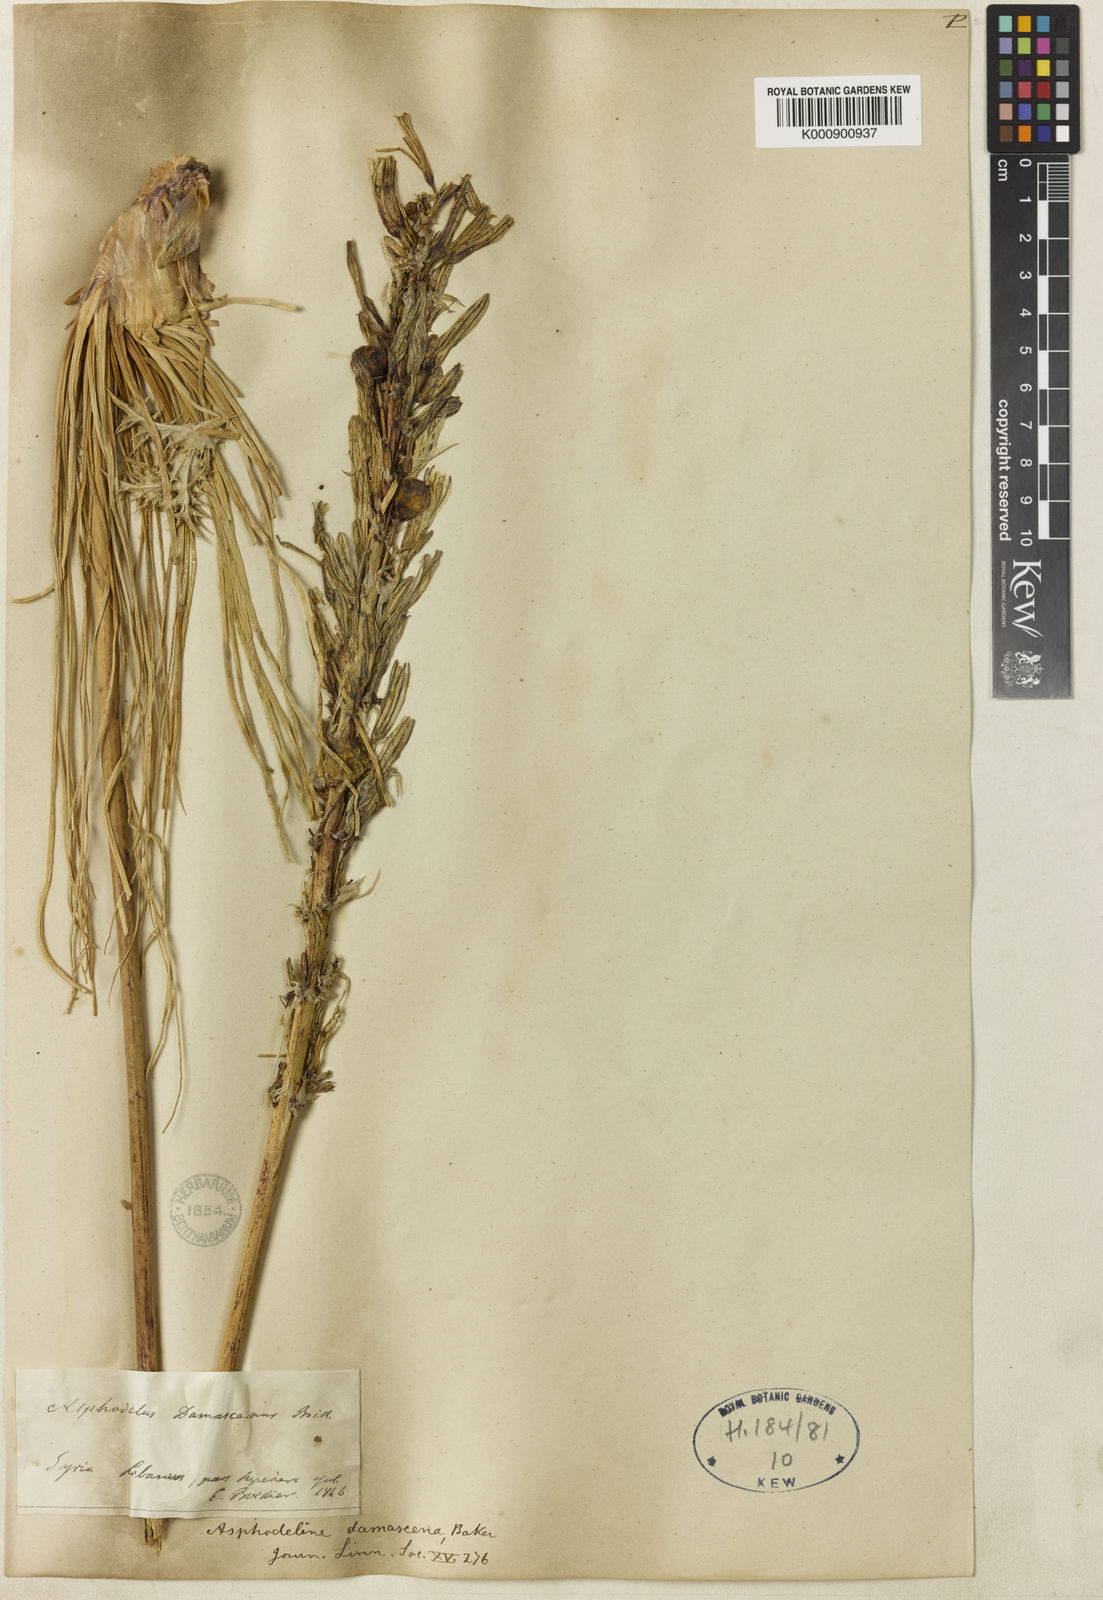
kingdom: Plantae
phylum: Tracheophyta
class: Liliopsida
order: Asparagales
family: Asphodelaceae
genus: Asphodeline
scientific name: Asphodeline damascena
